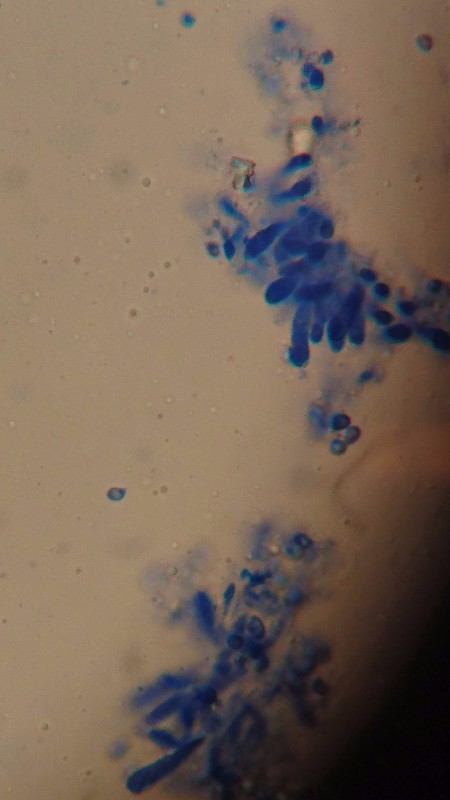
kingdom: Fungi
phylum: Basidiomycota
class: Agaricomycetes
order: Agaricales
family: Tricholomataceae
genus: Cystoderma
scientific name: Cystoderma carcharias
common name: rødgrå grynhat
